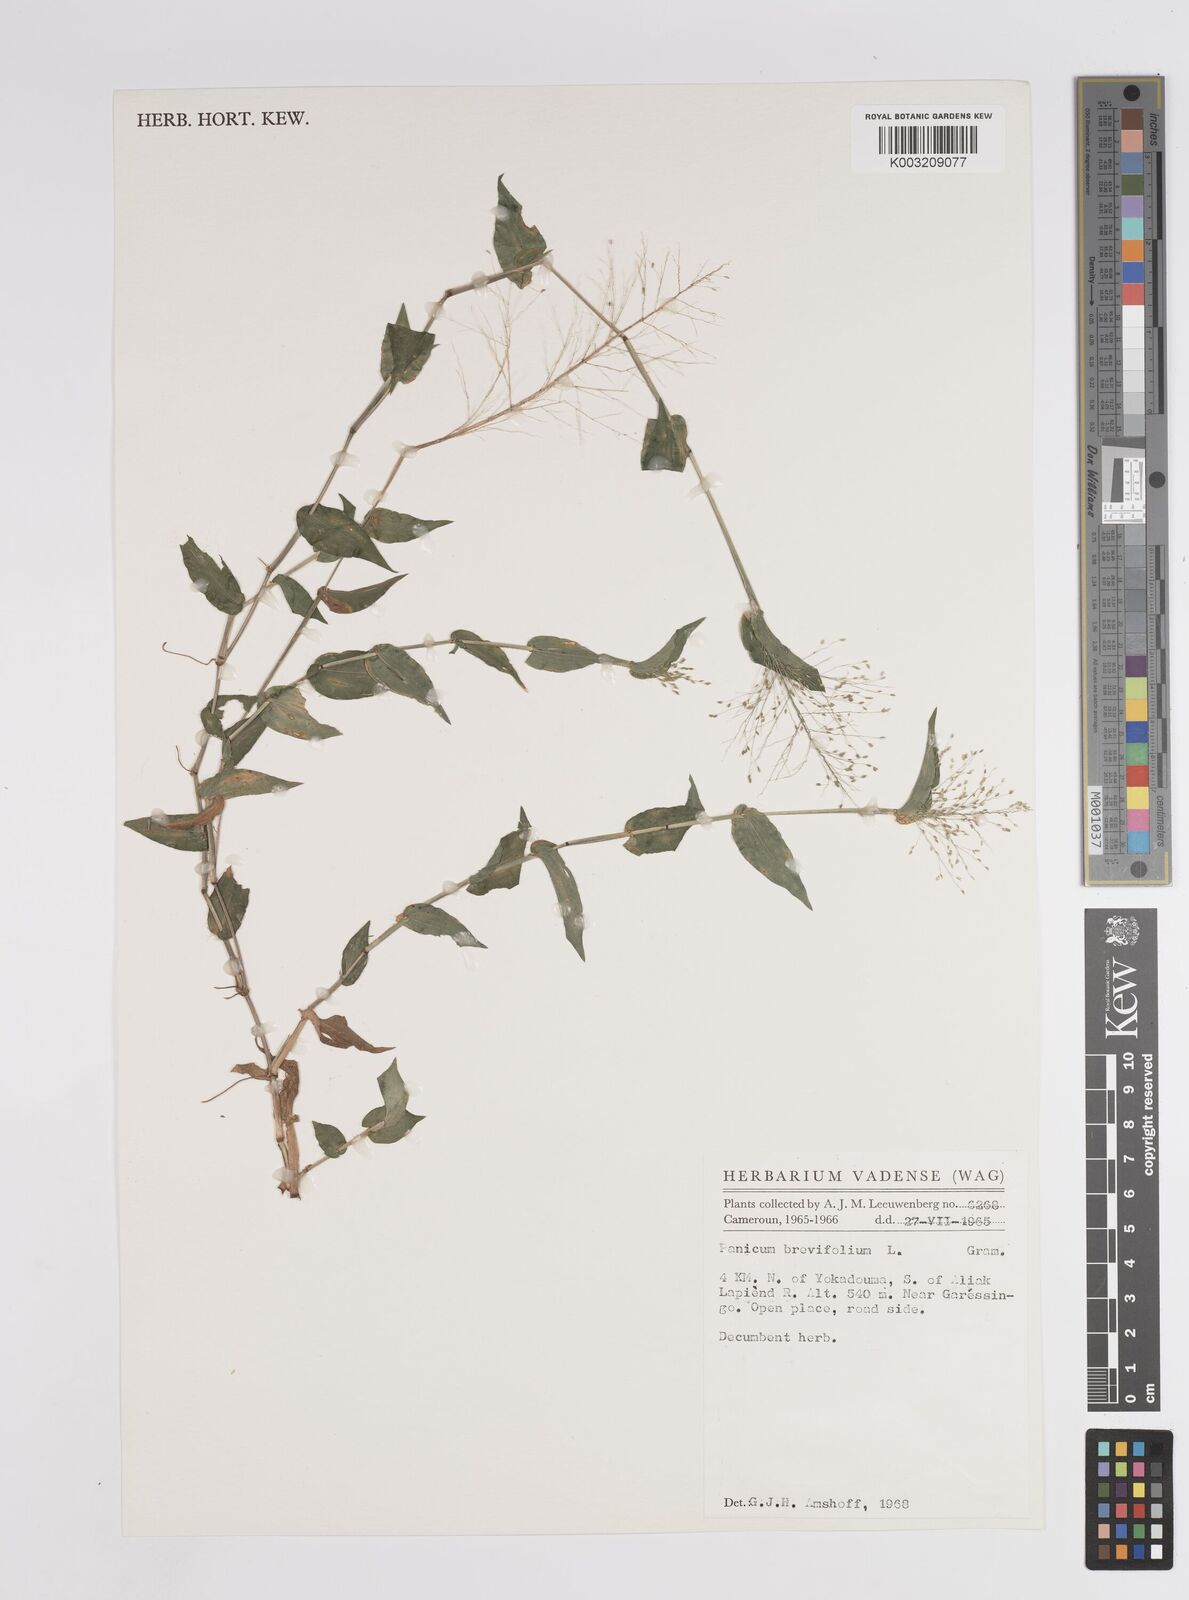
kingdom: Plantae
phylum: Tracheophyta
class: Liliopsida
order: Poales
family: Poaceae
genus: Panicum
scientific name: Panicum brevifolium
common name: Shortleaf panic grass
